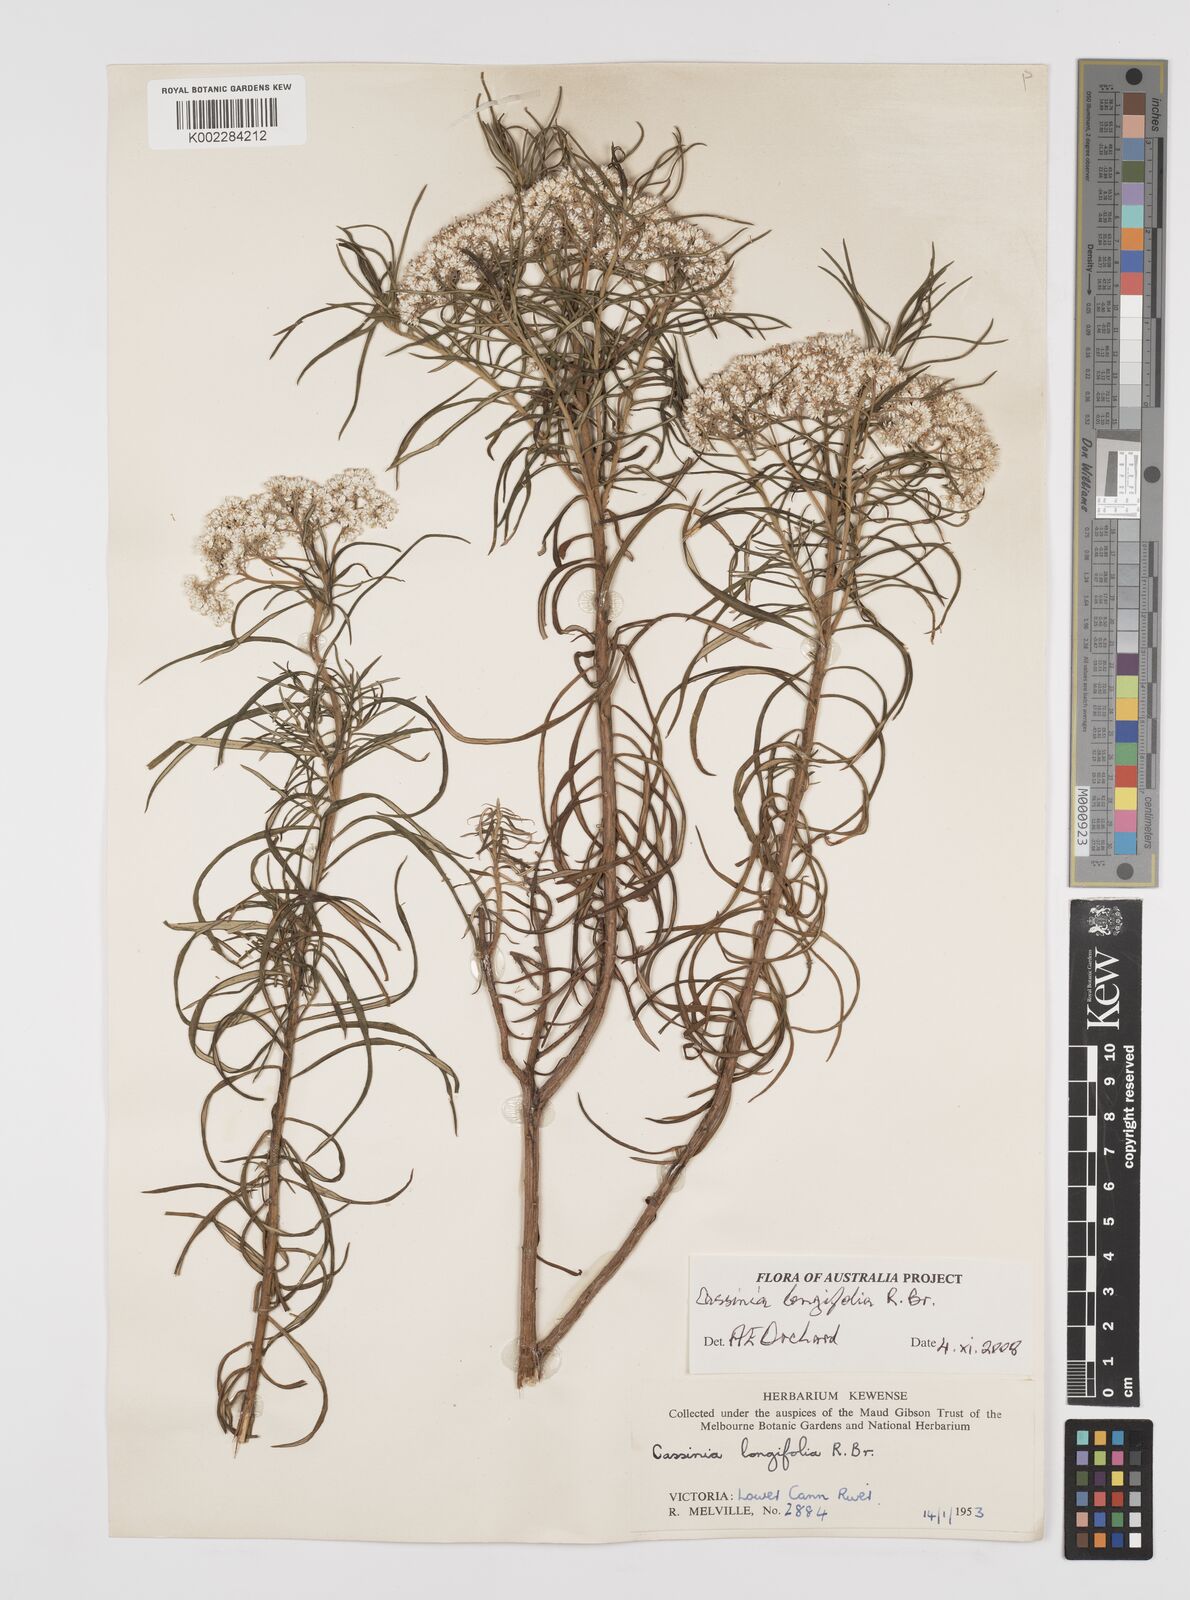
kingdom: Plantae
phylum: Tracheophyta
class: Magnoliopsida
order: Asterales
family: Asteraceae
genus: Cassinia
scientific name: Cassinia longifolia
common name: Longleaf-dogwood
